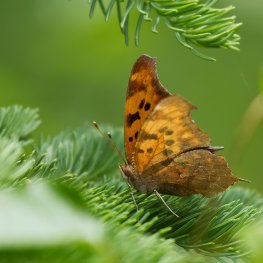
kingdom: Animalia
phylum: Arthropoda
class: Insecta
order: Lepidoptera
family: Nymphalidae
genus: Polygonia
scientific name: Polygonia interrogationis
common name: Question Mark
